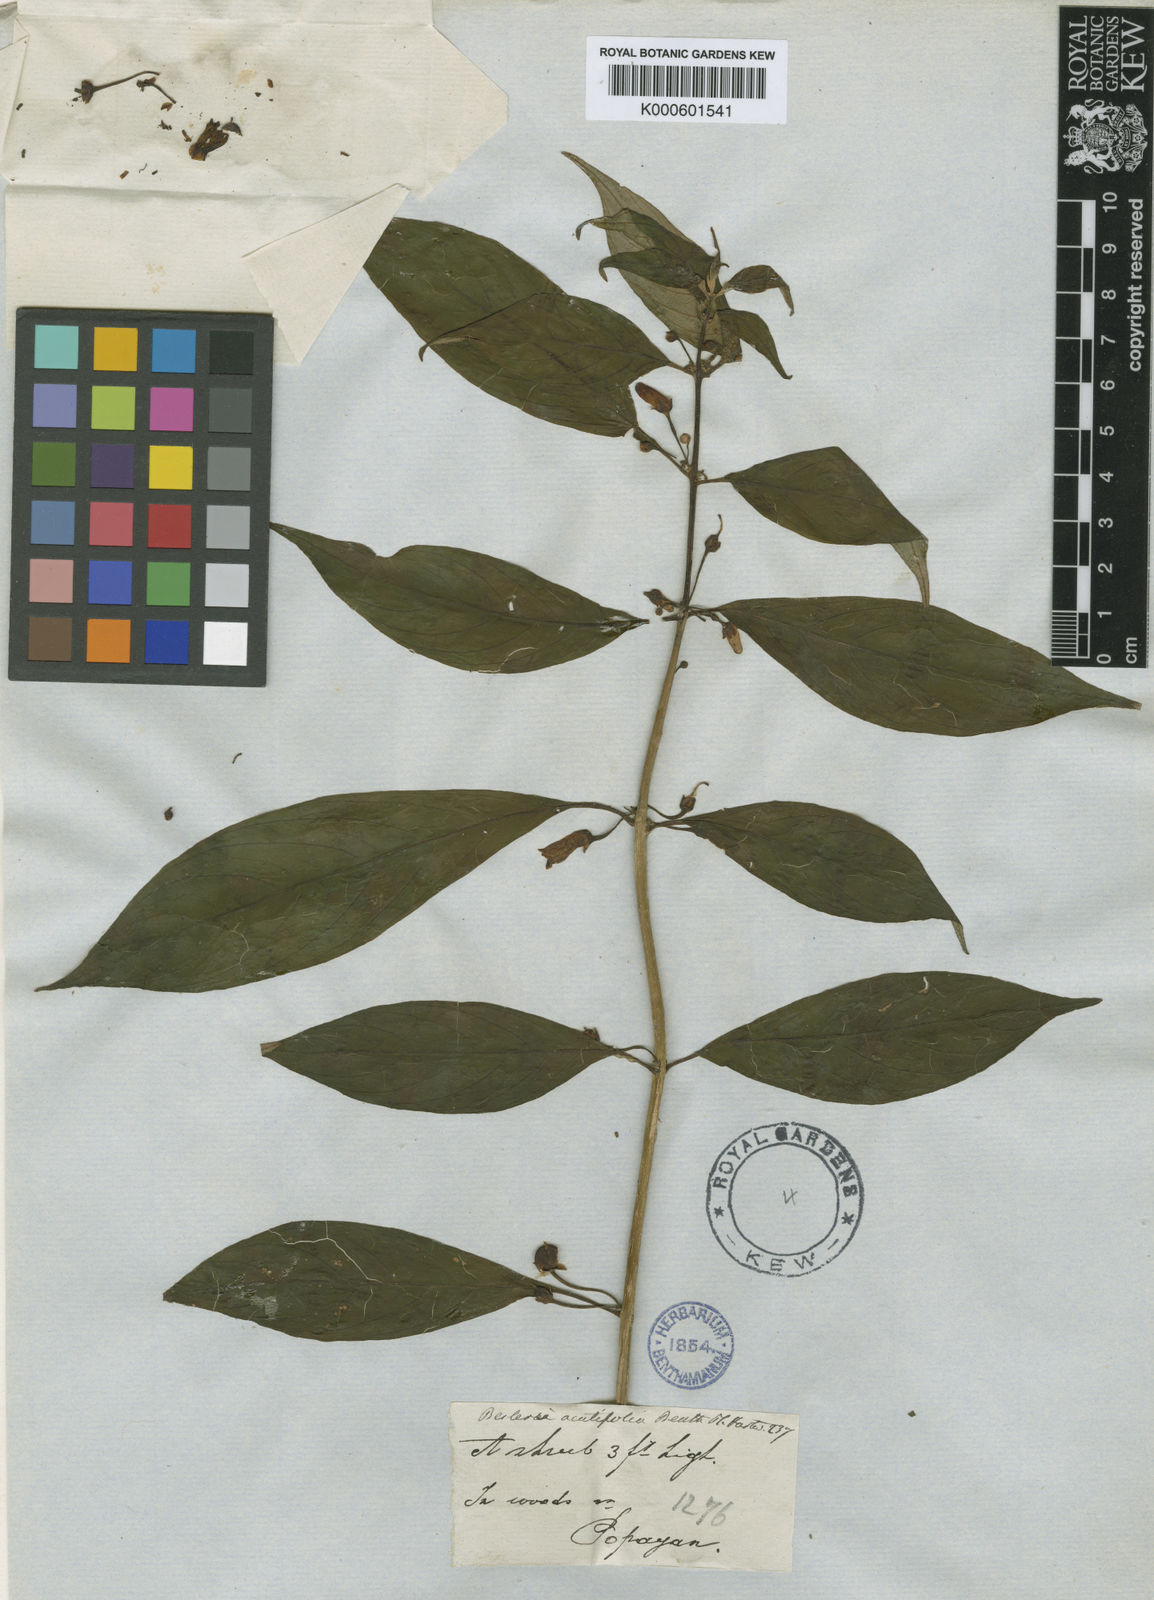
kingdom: Plantae
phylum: Tracheophyta
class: Magnoliopsida
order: Lamiales
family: Gesneriaceae
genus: Besleria
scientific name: Besleria solanoides
